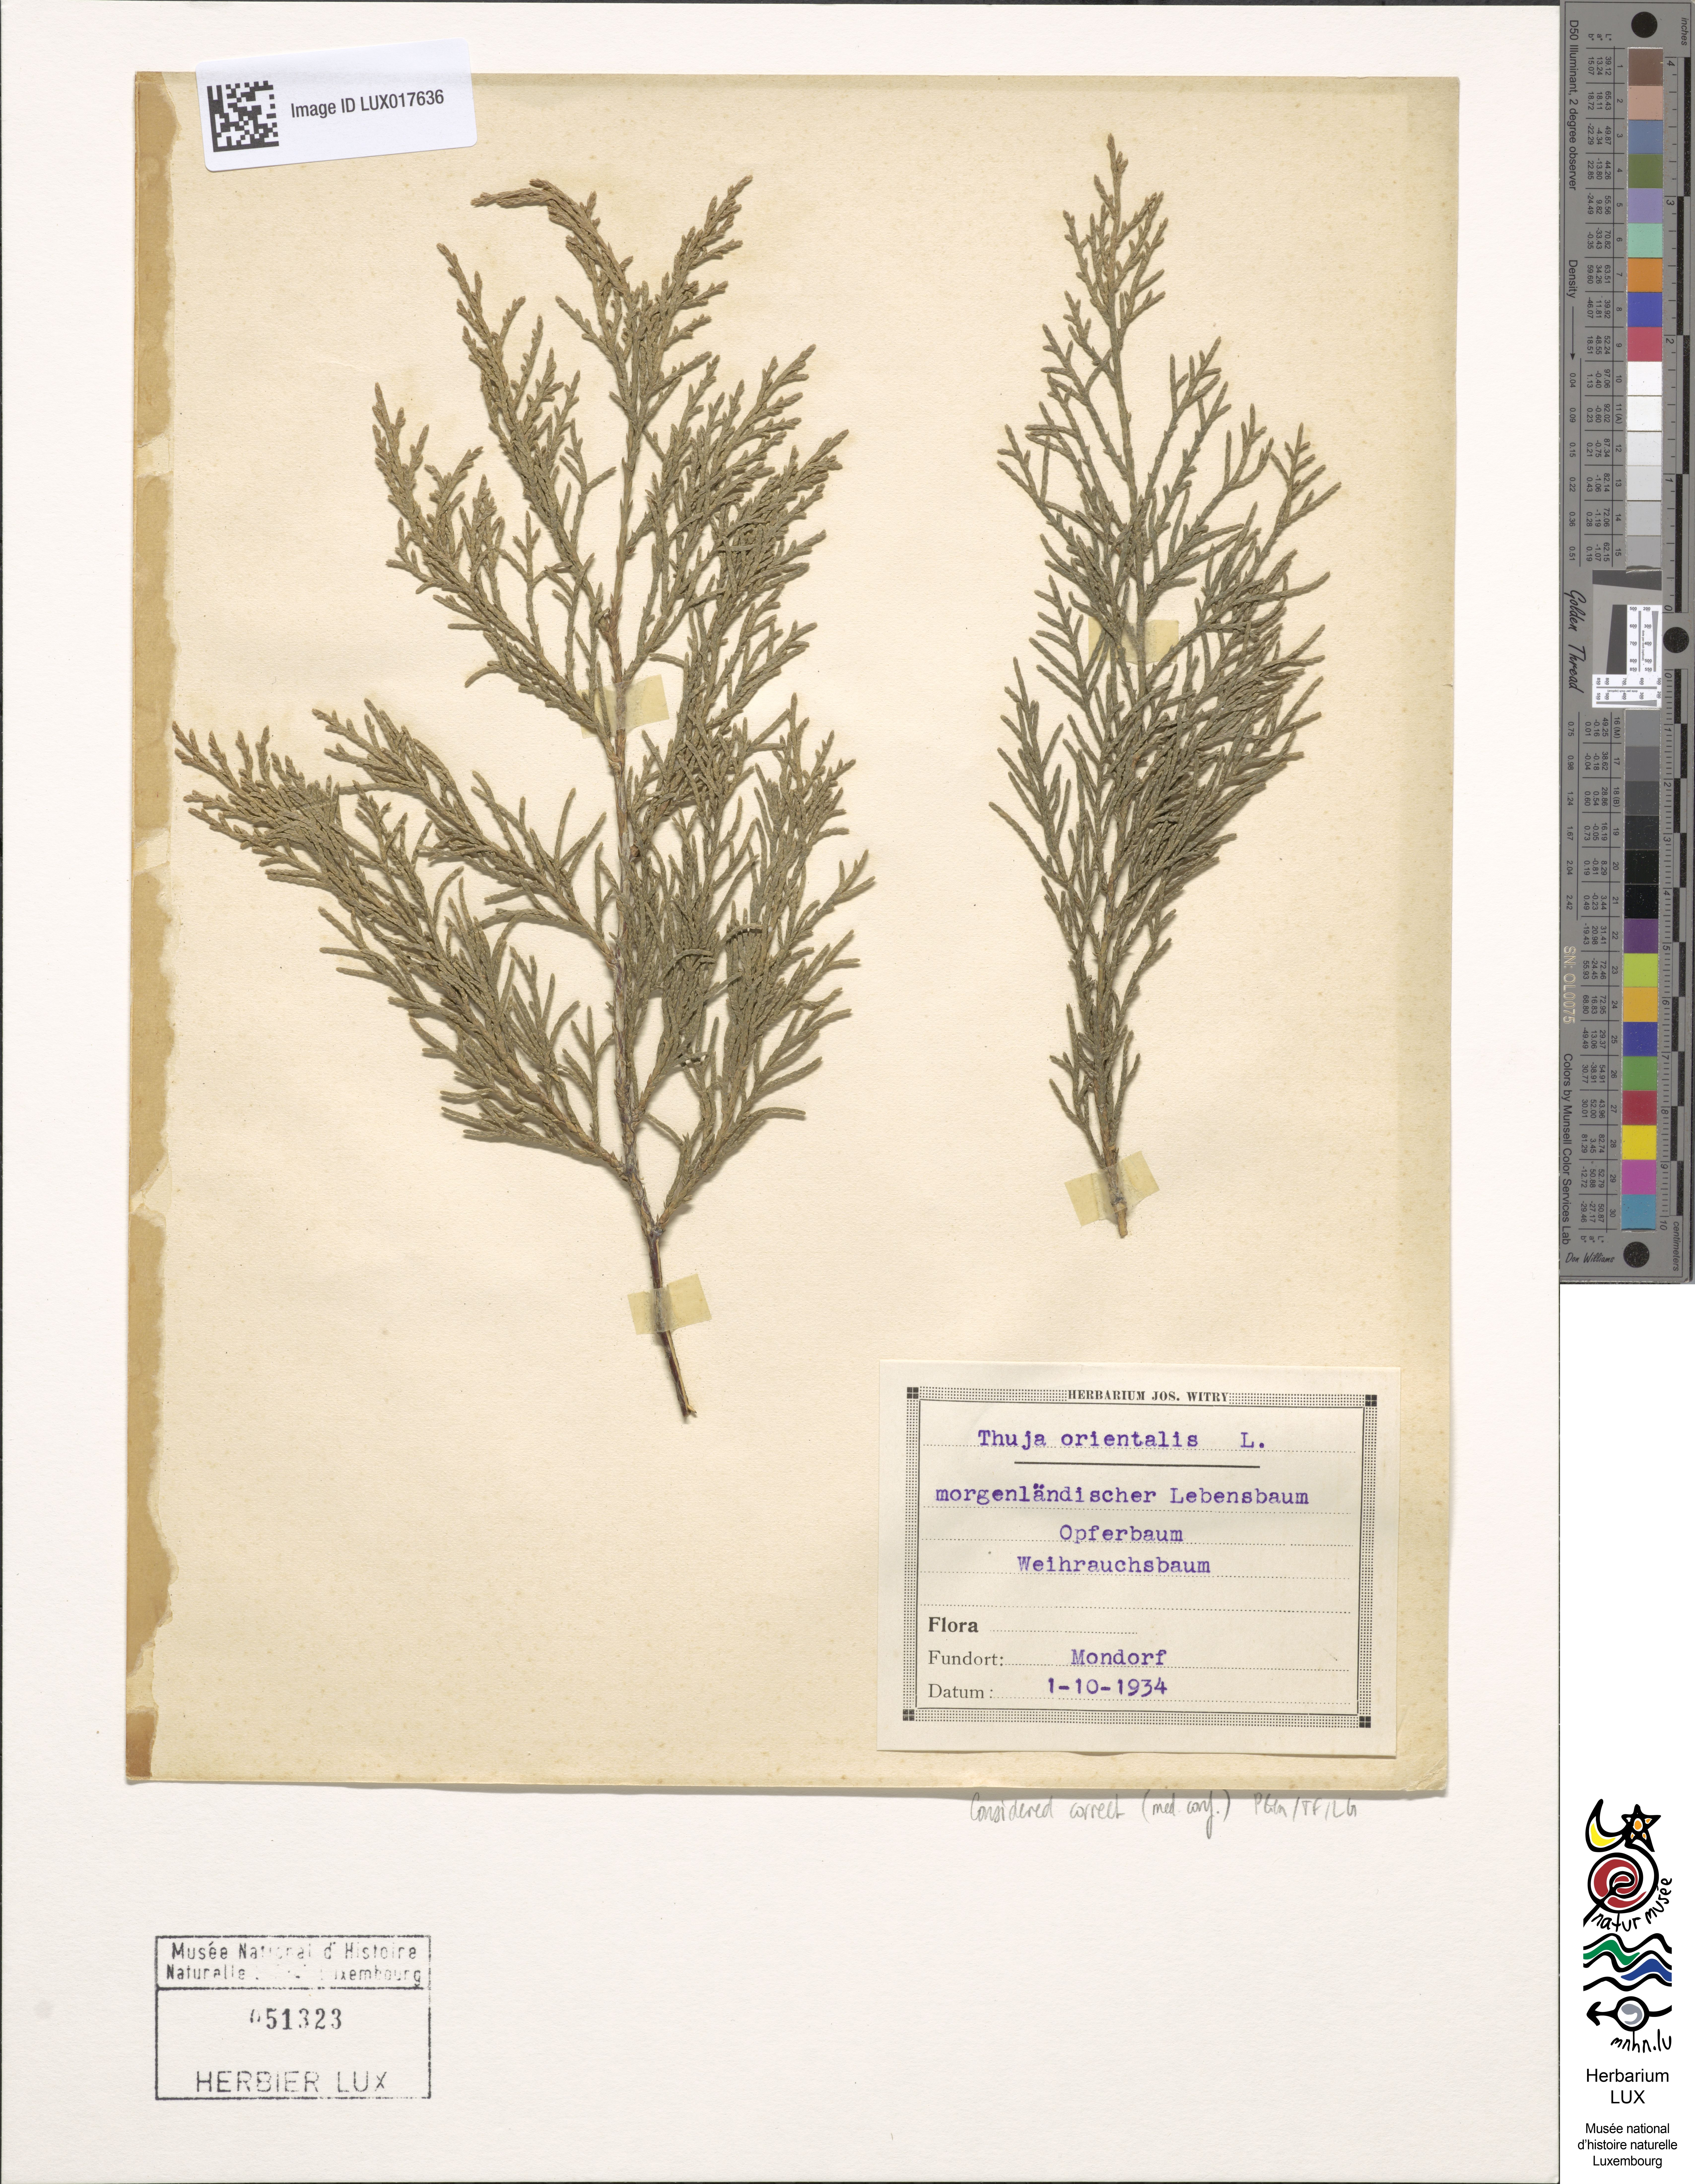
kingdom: Plantae
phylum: Tracheophyta
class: Pinopsida
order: Pinales
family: Cupressaceae
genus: Platycladus
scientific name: Platycladus orientalis
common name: Chinese thuja
